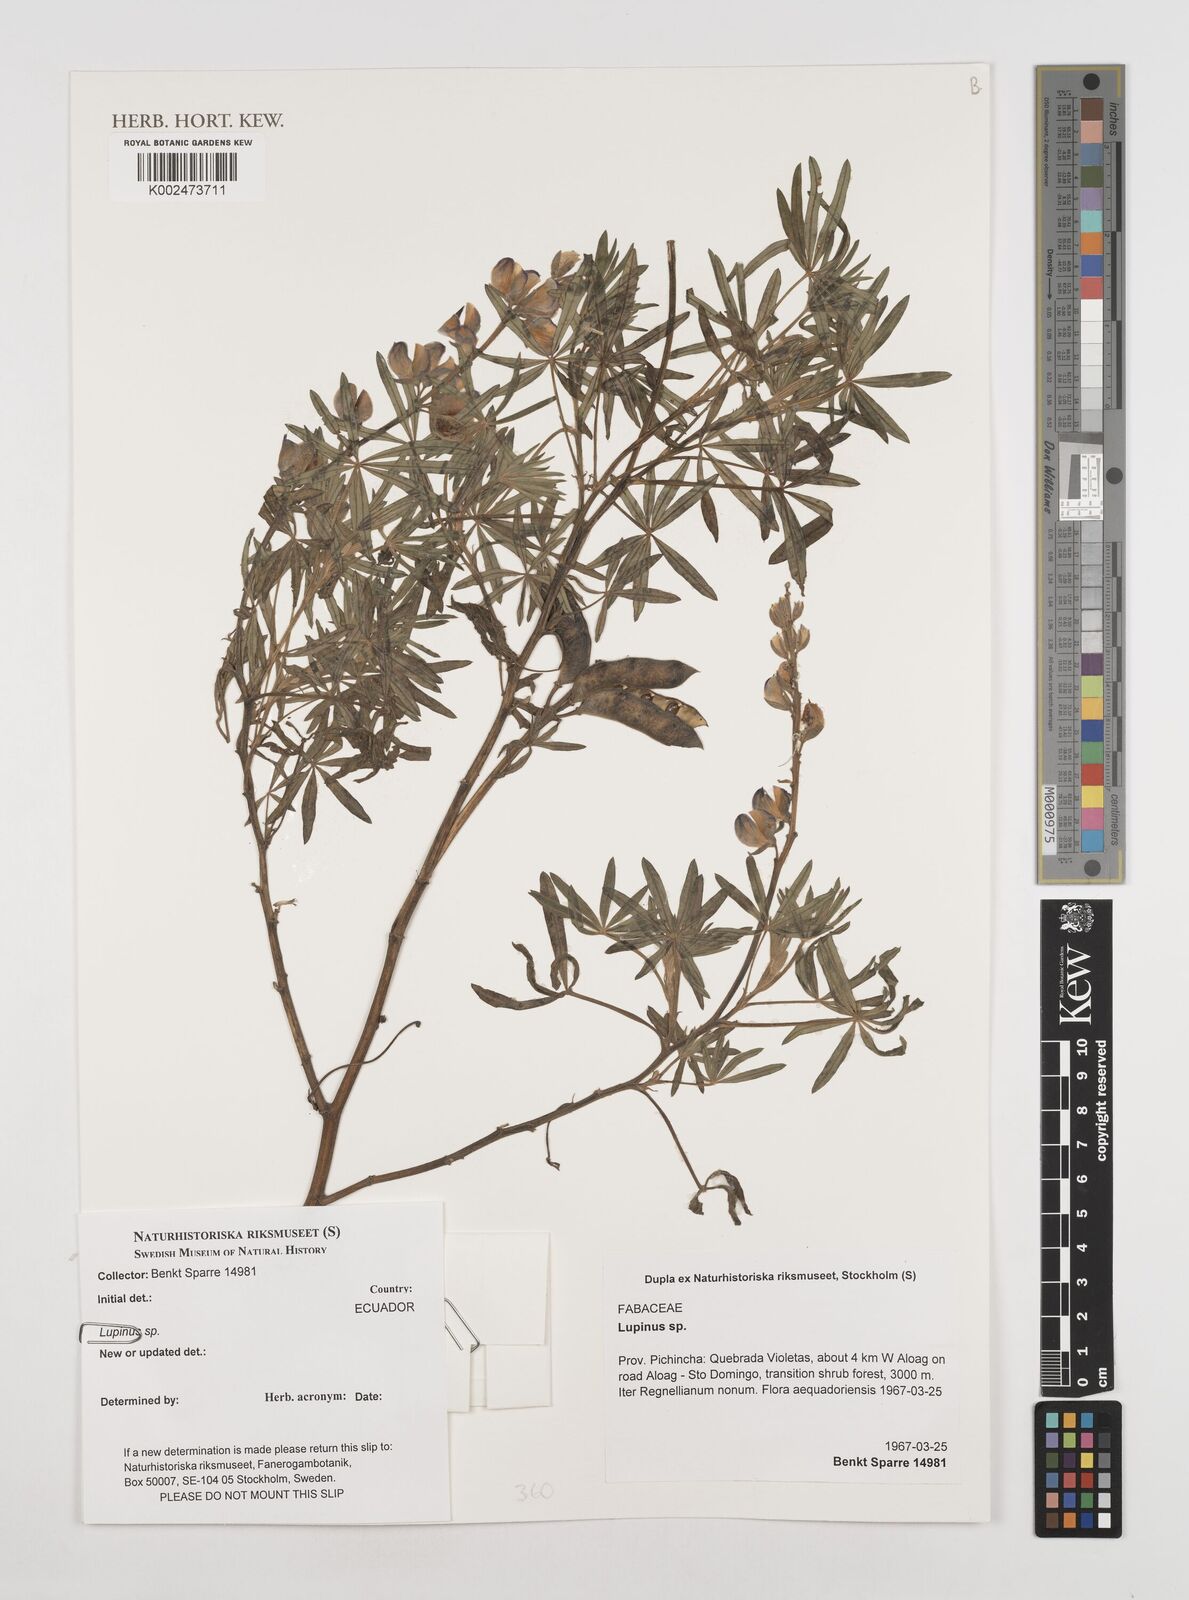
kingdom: Plantae
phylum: Tracheophyta
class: Magnoliopsida
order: Fabales
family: Fabaceae
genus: Lupinus
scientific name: Lupinus
